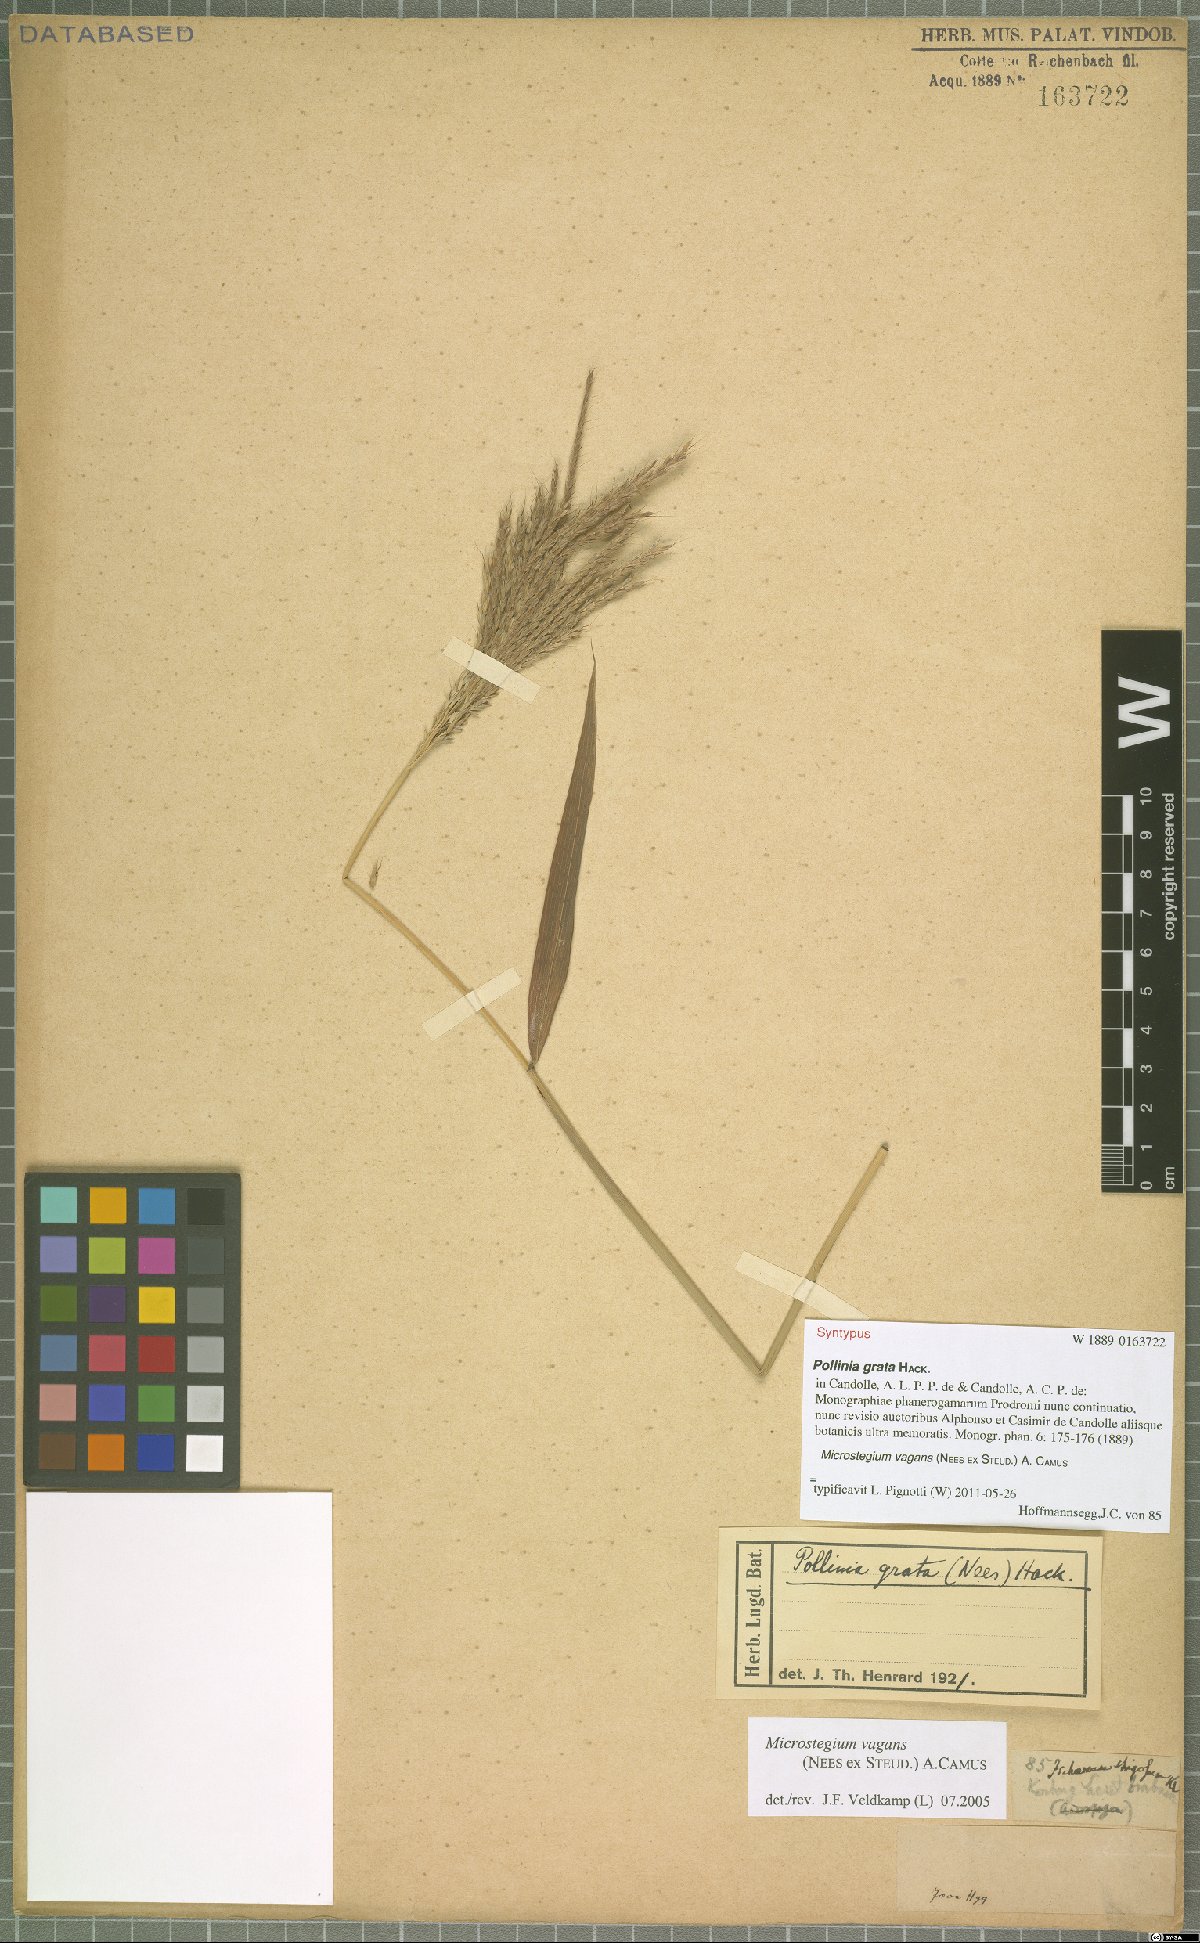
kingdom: Plantae
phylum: Tracheophyta
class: Liliopsida
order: Poales
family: Poaceae
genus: Microstegium
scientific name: Microstegium fasciculatum
